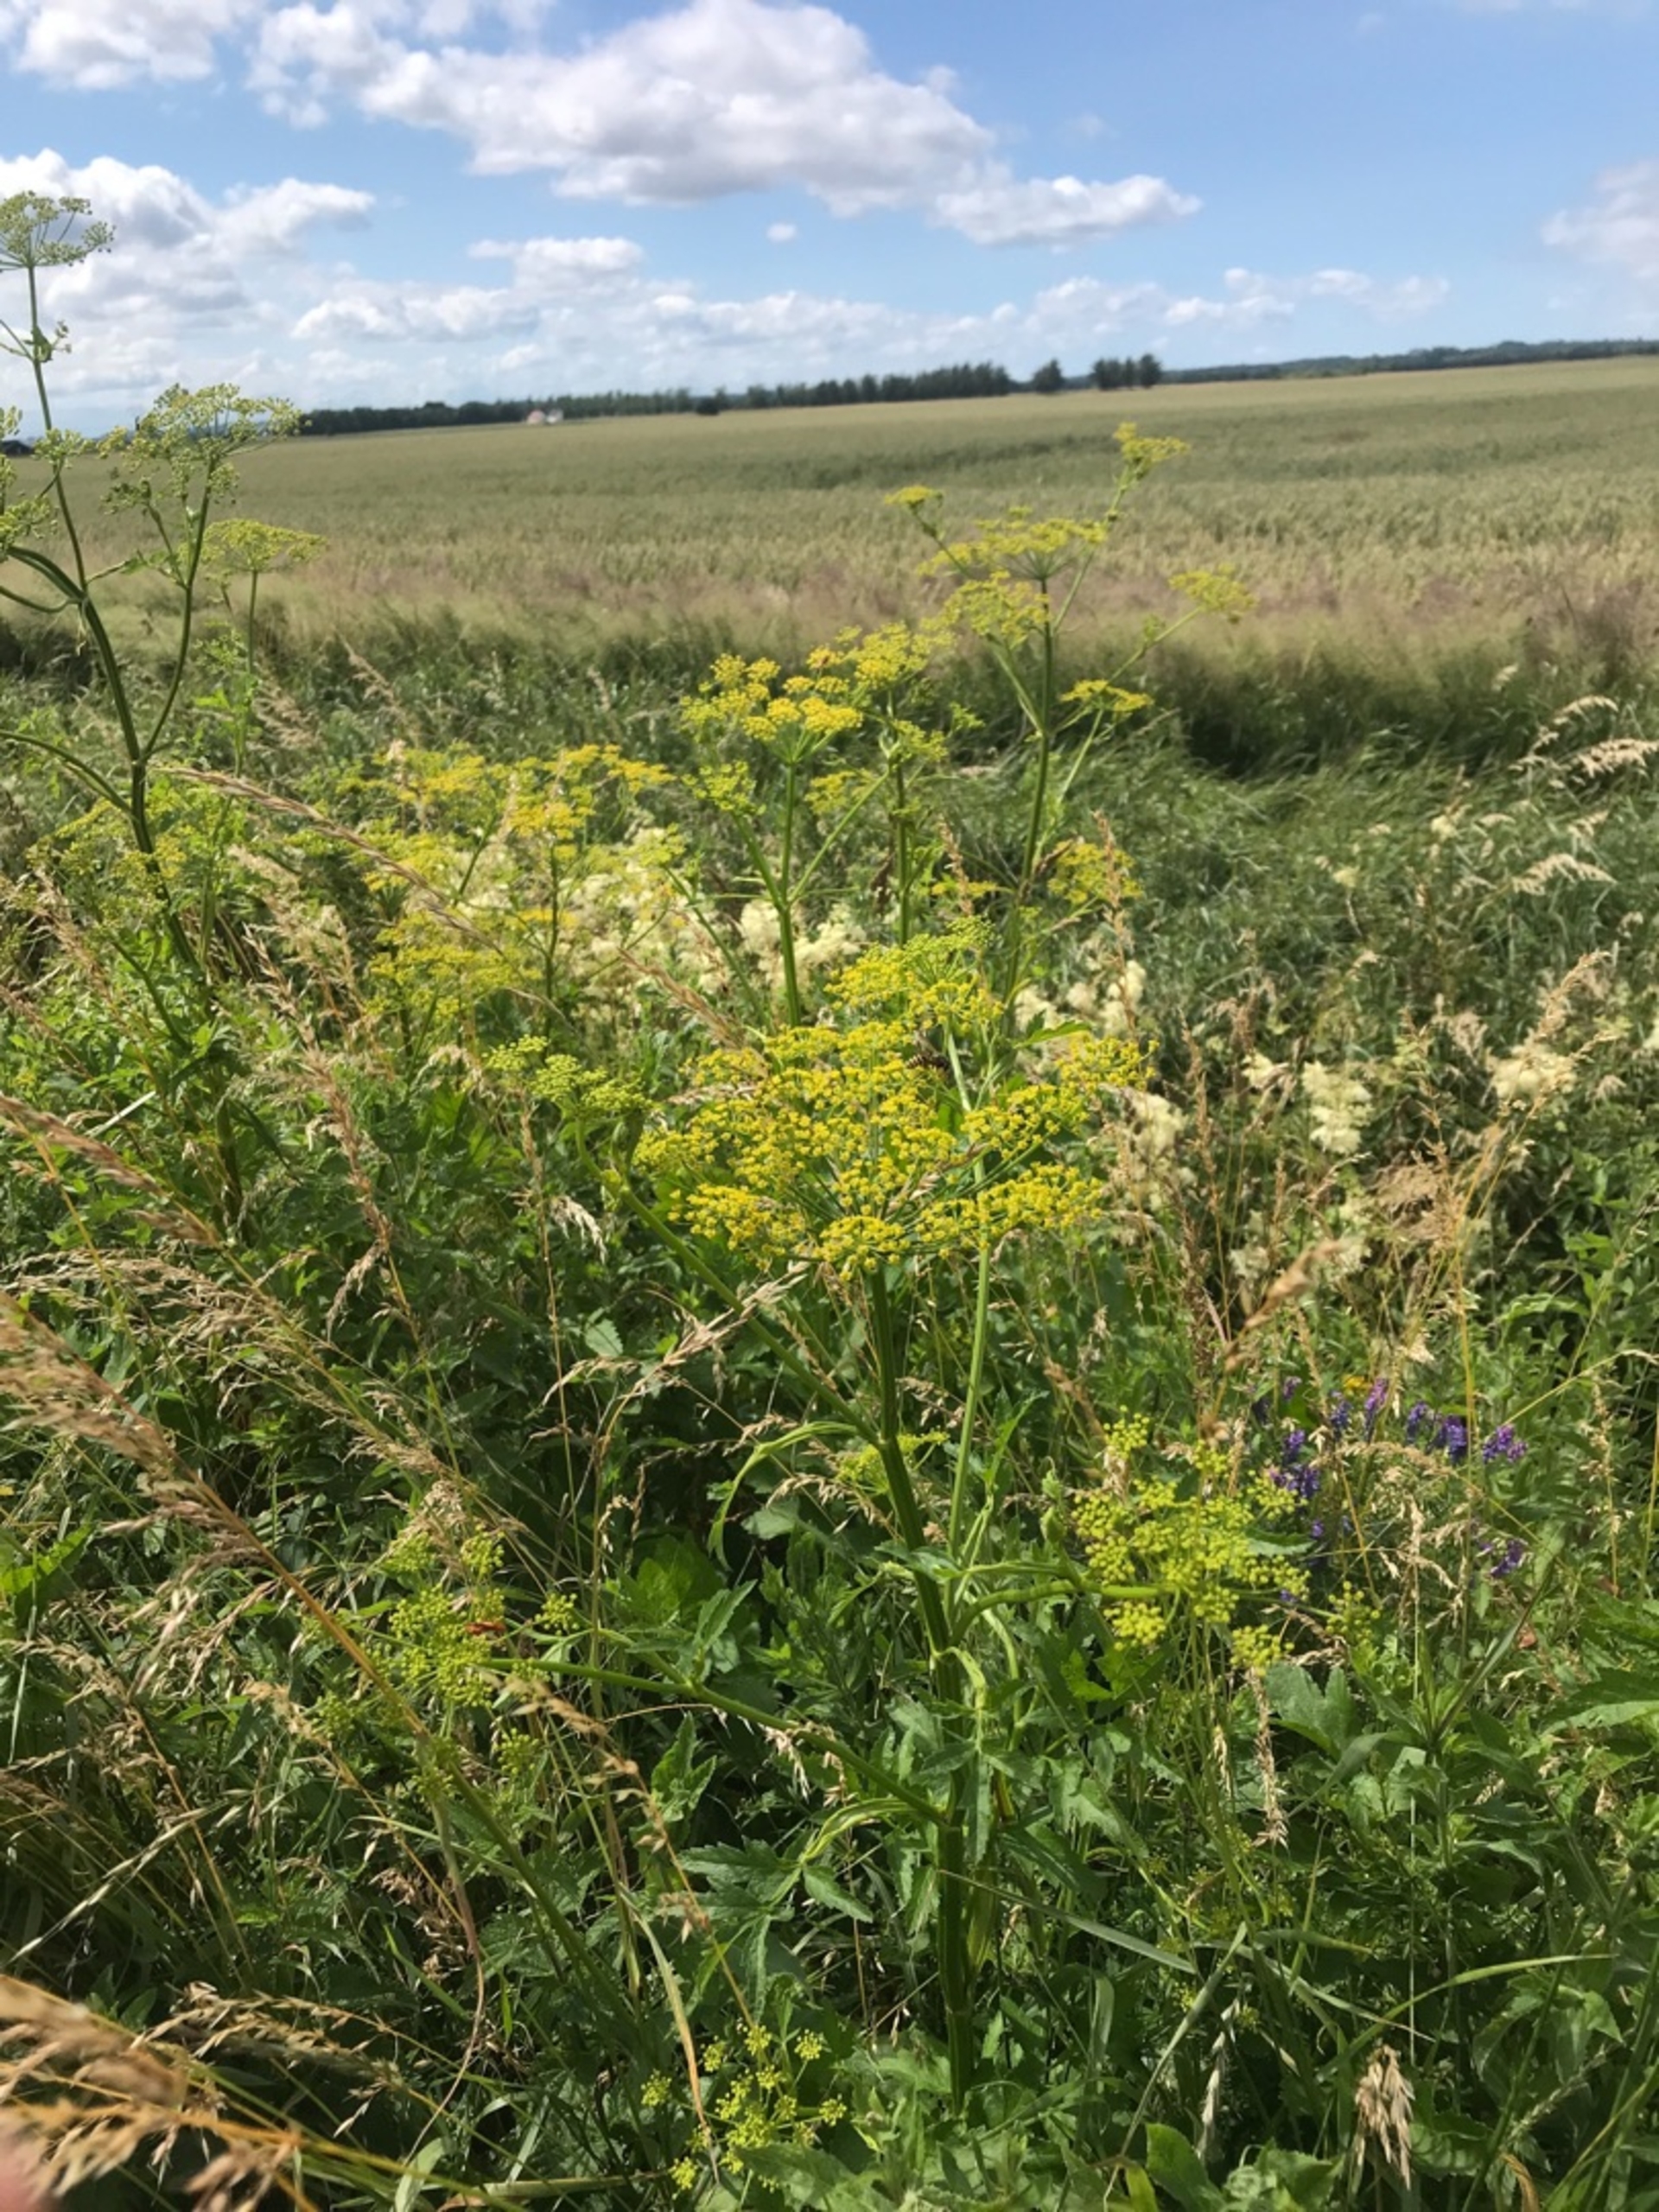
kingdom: Plantae
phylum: Tracheophyta
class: Magnoliopsida
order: Apiales
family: Apiaceae
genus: Pastinaca
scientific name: Pastinaca sativa
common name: Pastinak
